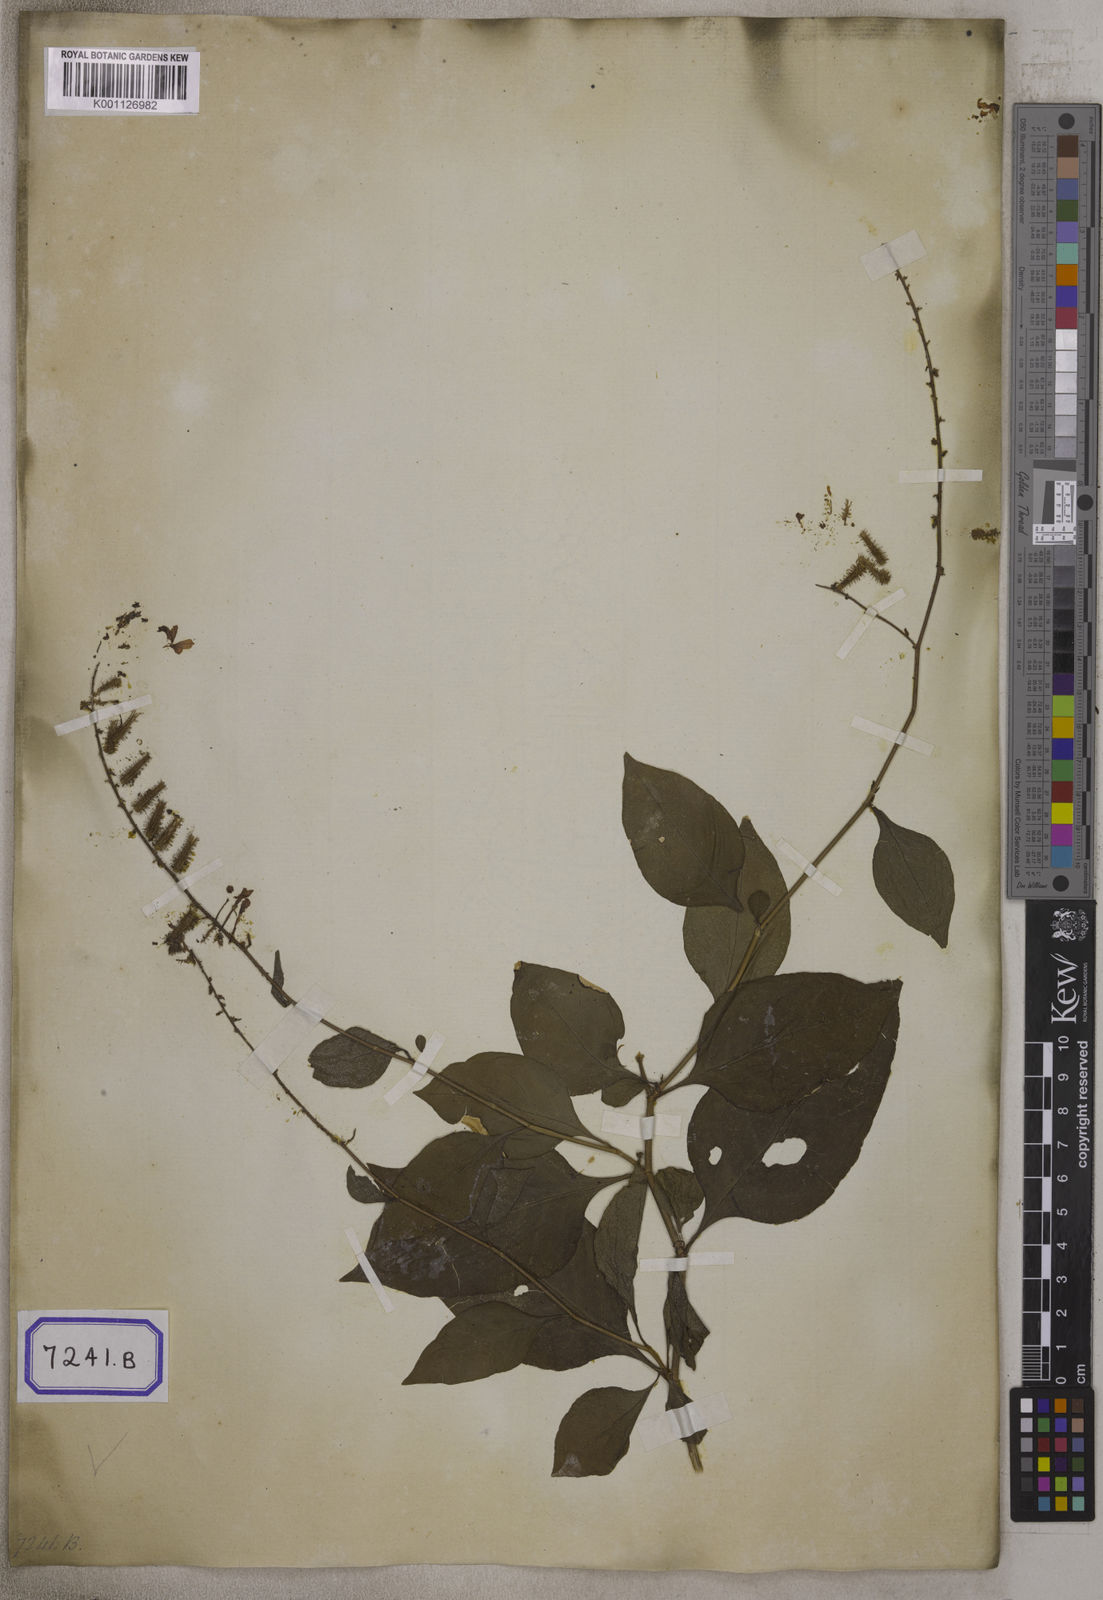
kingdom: Plantae
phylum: Tracheophyta
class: Magnoliopsida
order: Caryophyllales
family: Plumbaginaceae
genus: Plumbago
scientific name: Plumbago zeylanica
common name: Doctorbush
